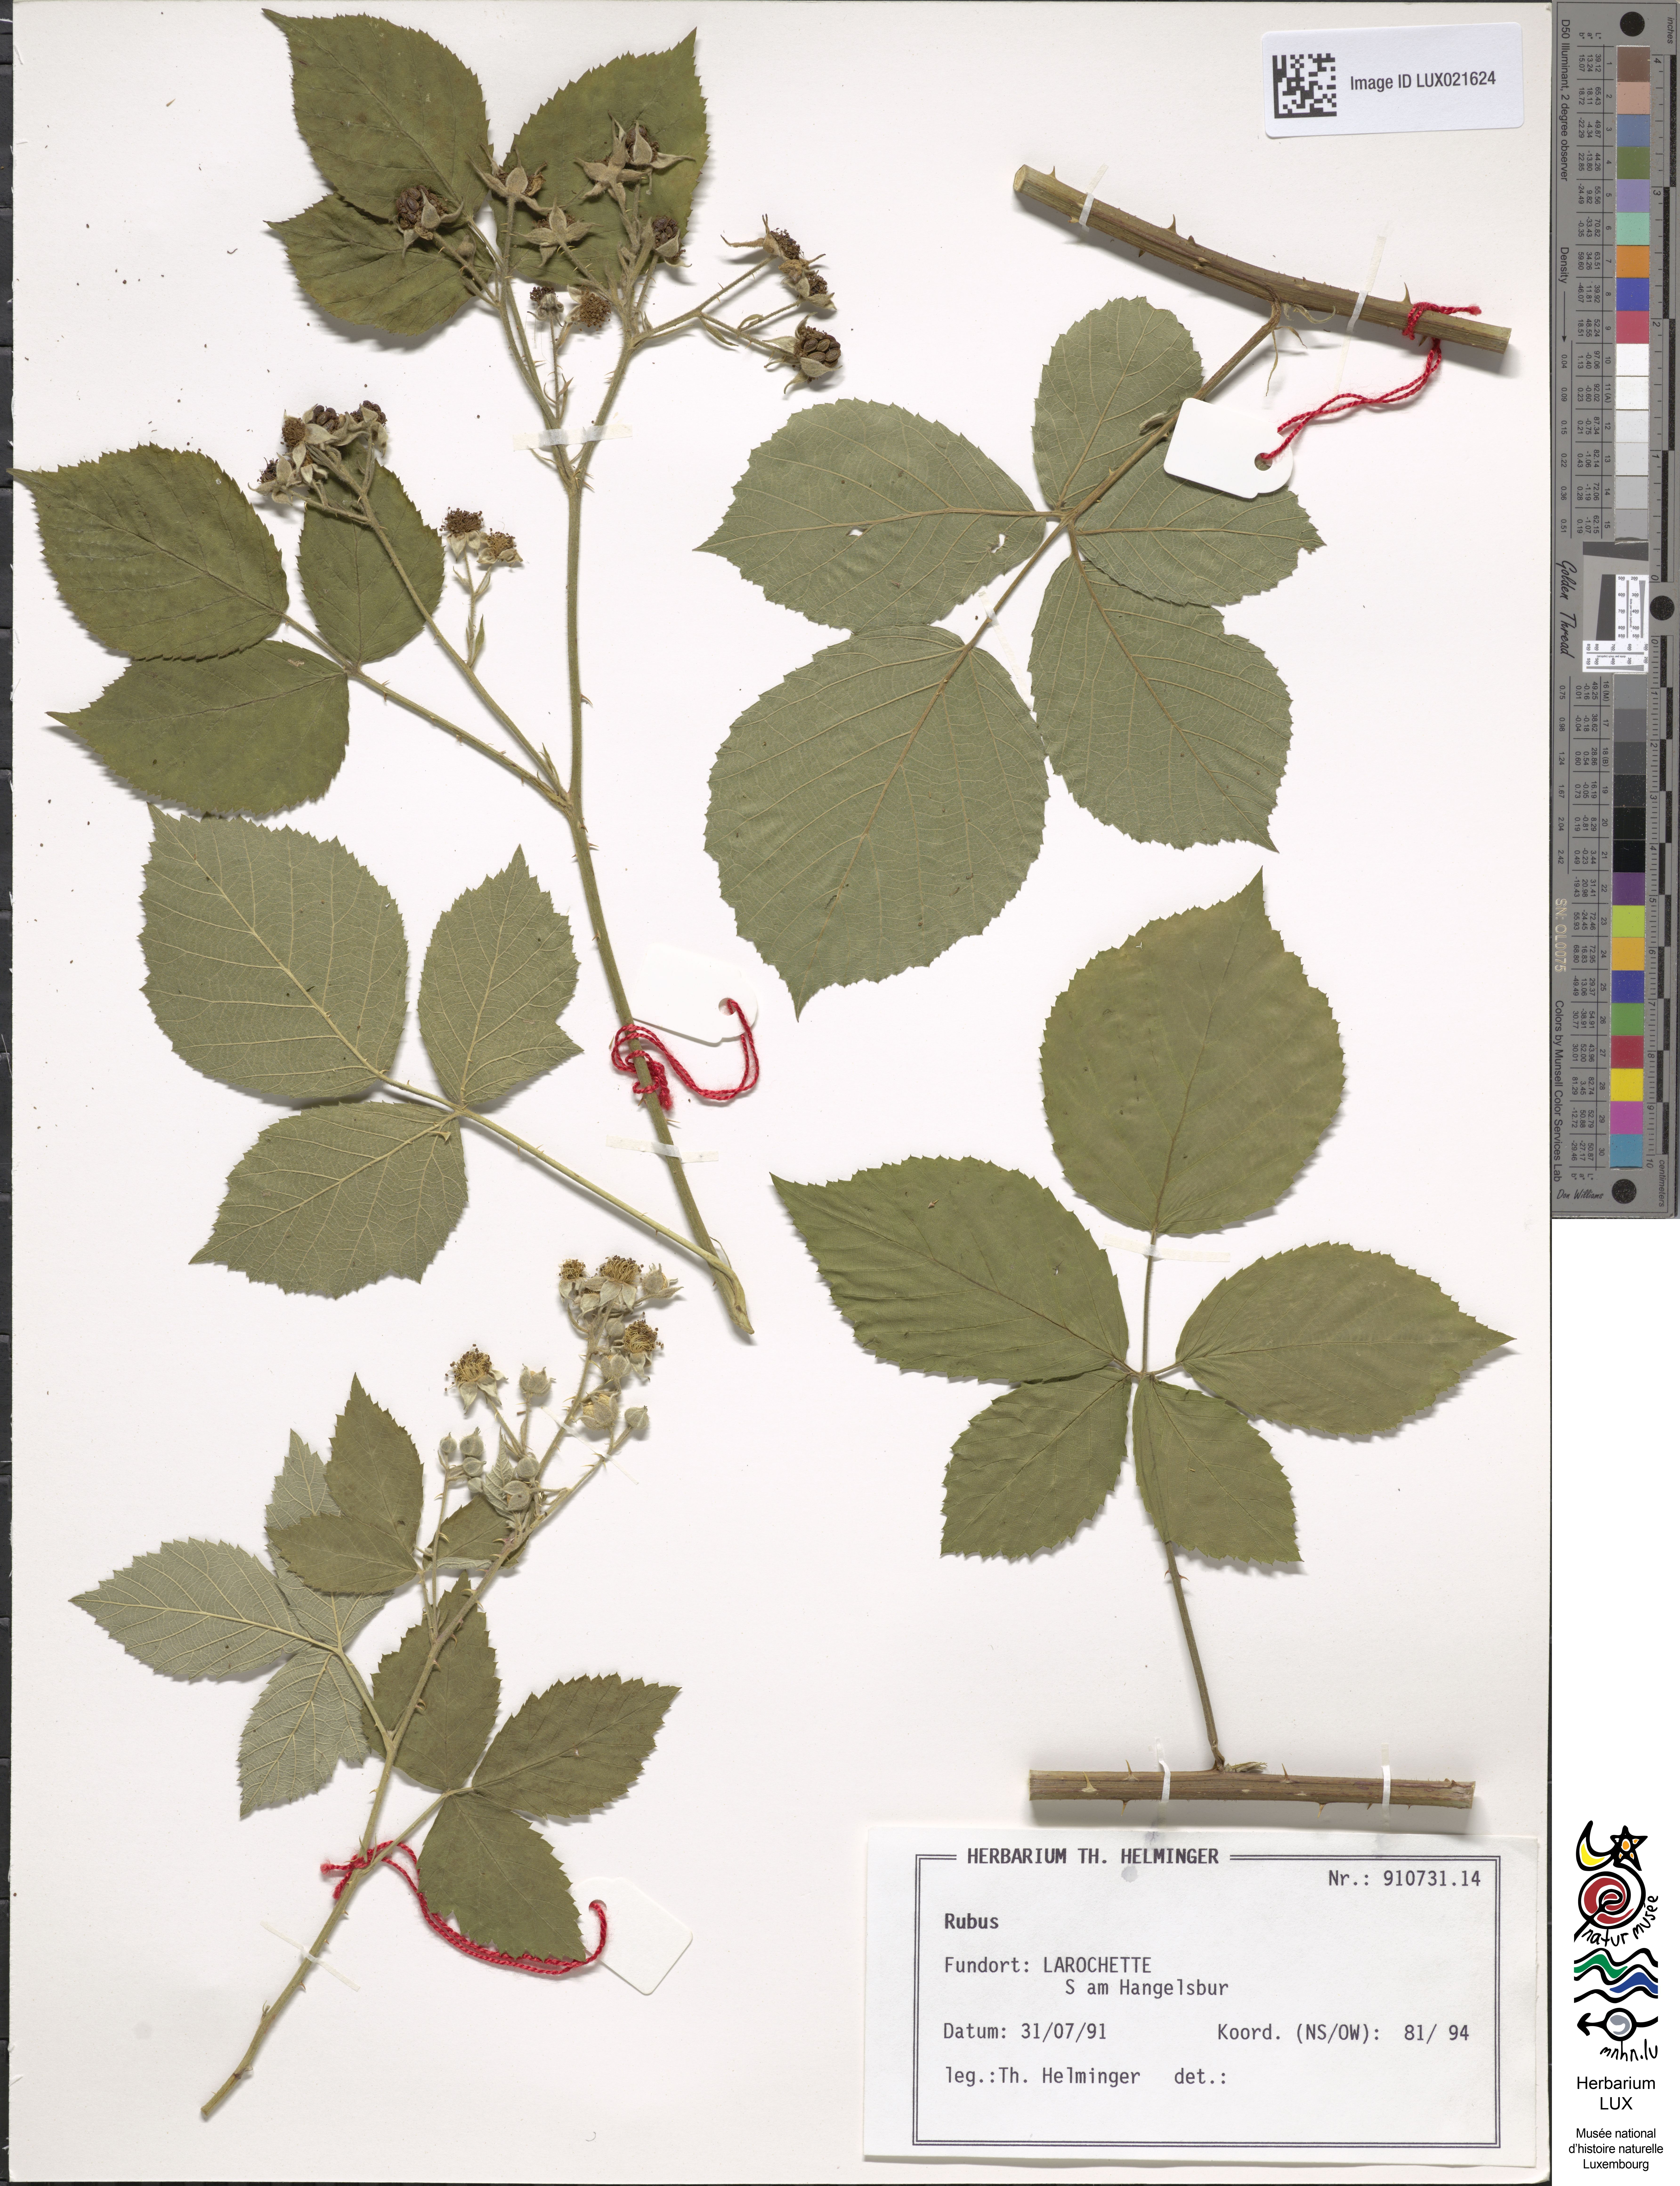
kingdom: Plantae
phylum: Tracheophyta
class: Magnoliopsida
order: Rosales
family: Rosaceae
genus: Rubus
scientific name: Rubus
